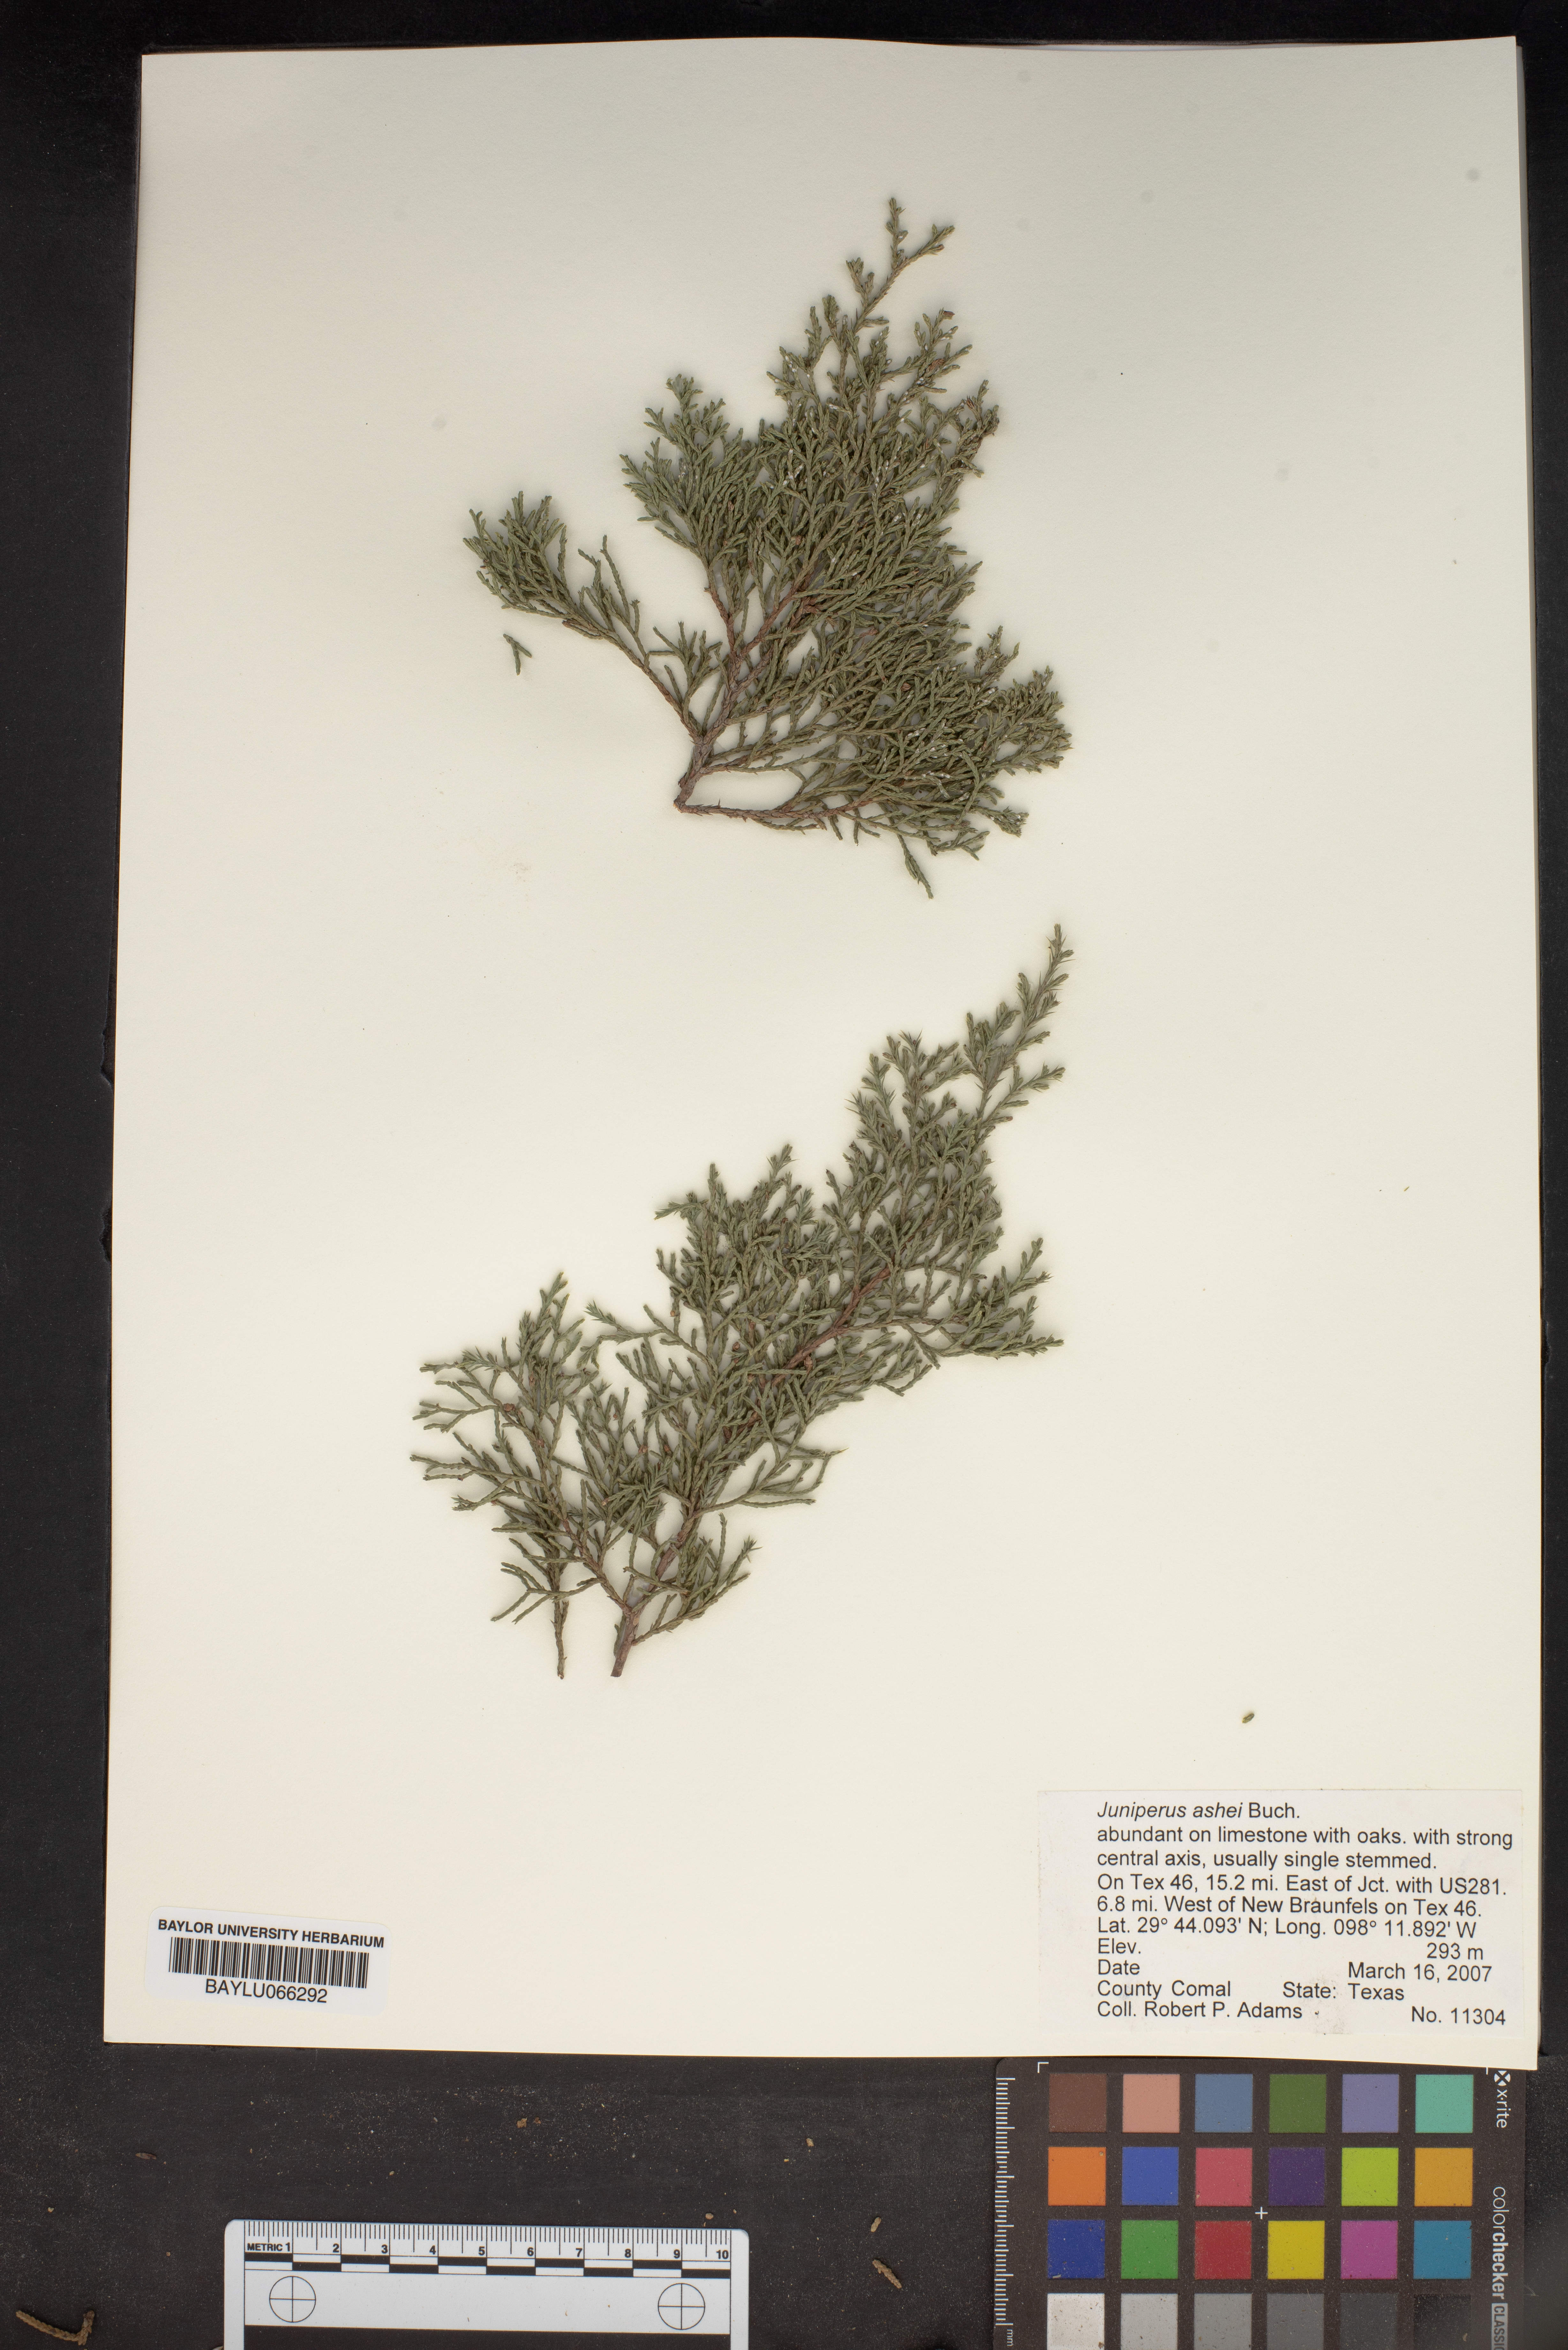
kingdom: Plantae
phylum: Tracheophyta
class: Pinopsida
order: Pinales
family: Cupressaceae
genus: Juniperus
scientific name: Juniperus ashei
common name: Mexican juniper
